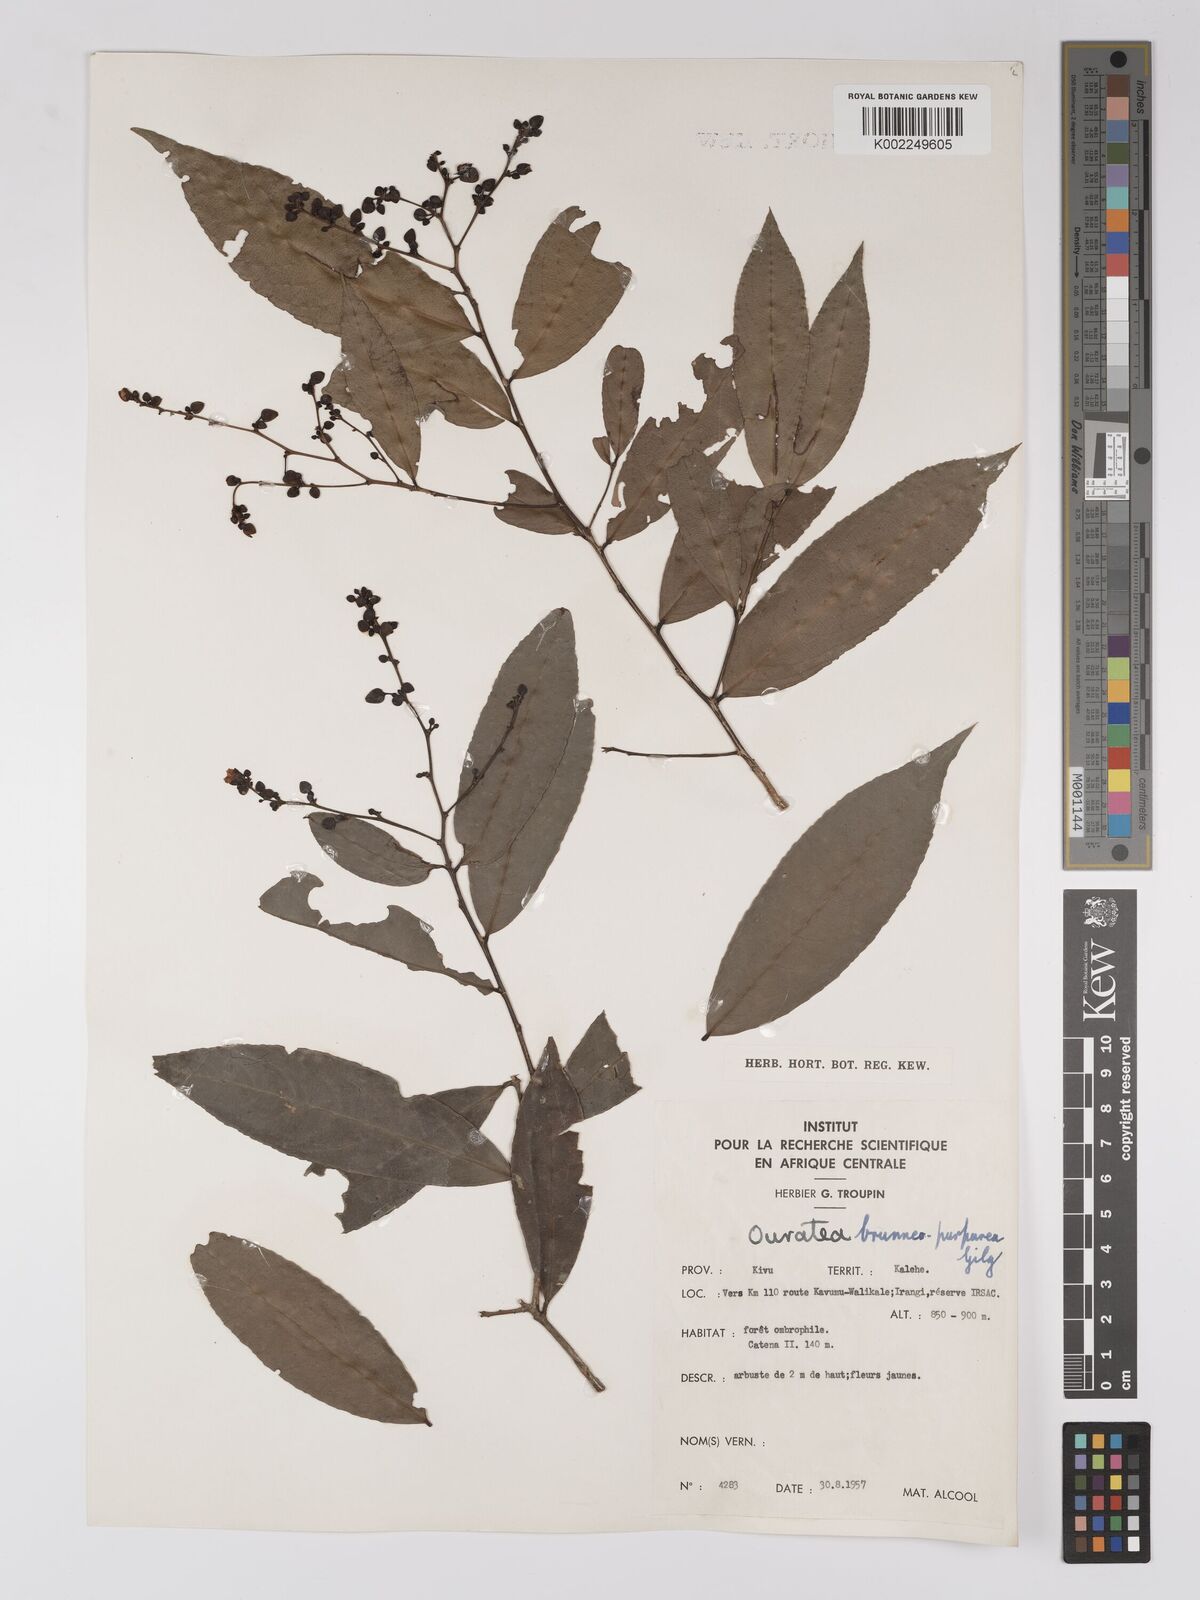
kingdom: Plantae
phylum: Tracheophyta
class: Magnoliopsida
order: Malpighiales
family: Ochnaceae
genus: Campylospermum
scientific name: Campylospermum reticulatum
